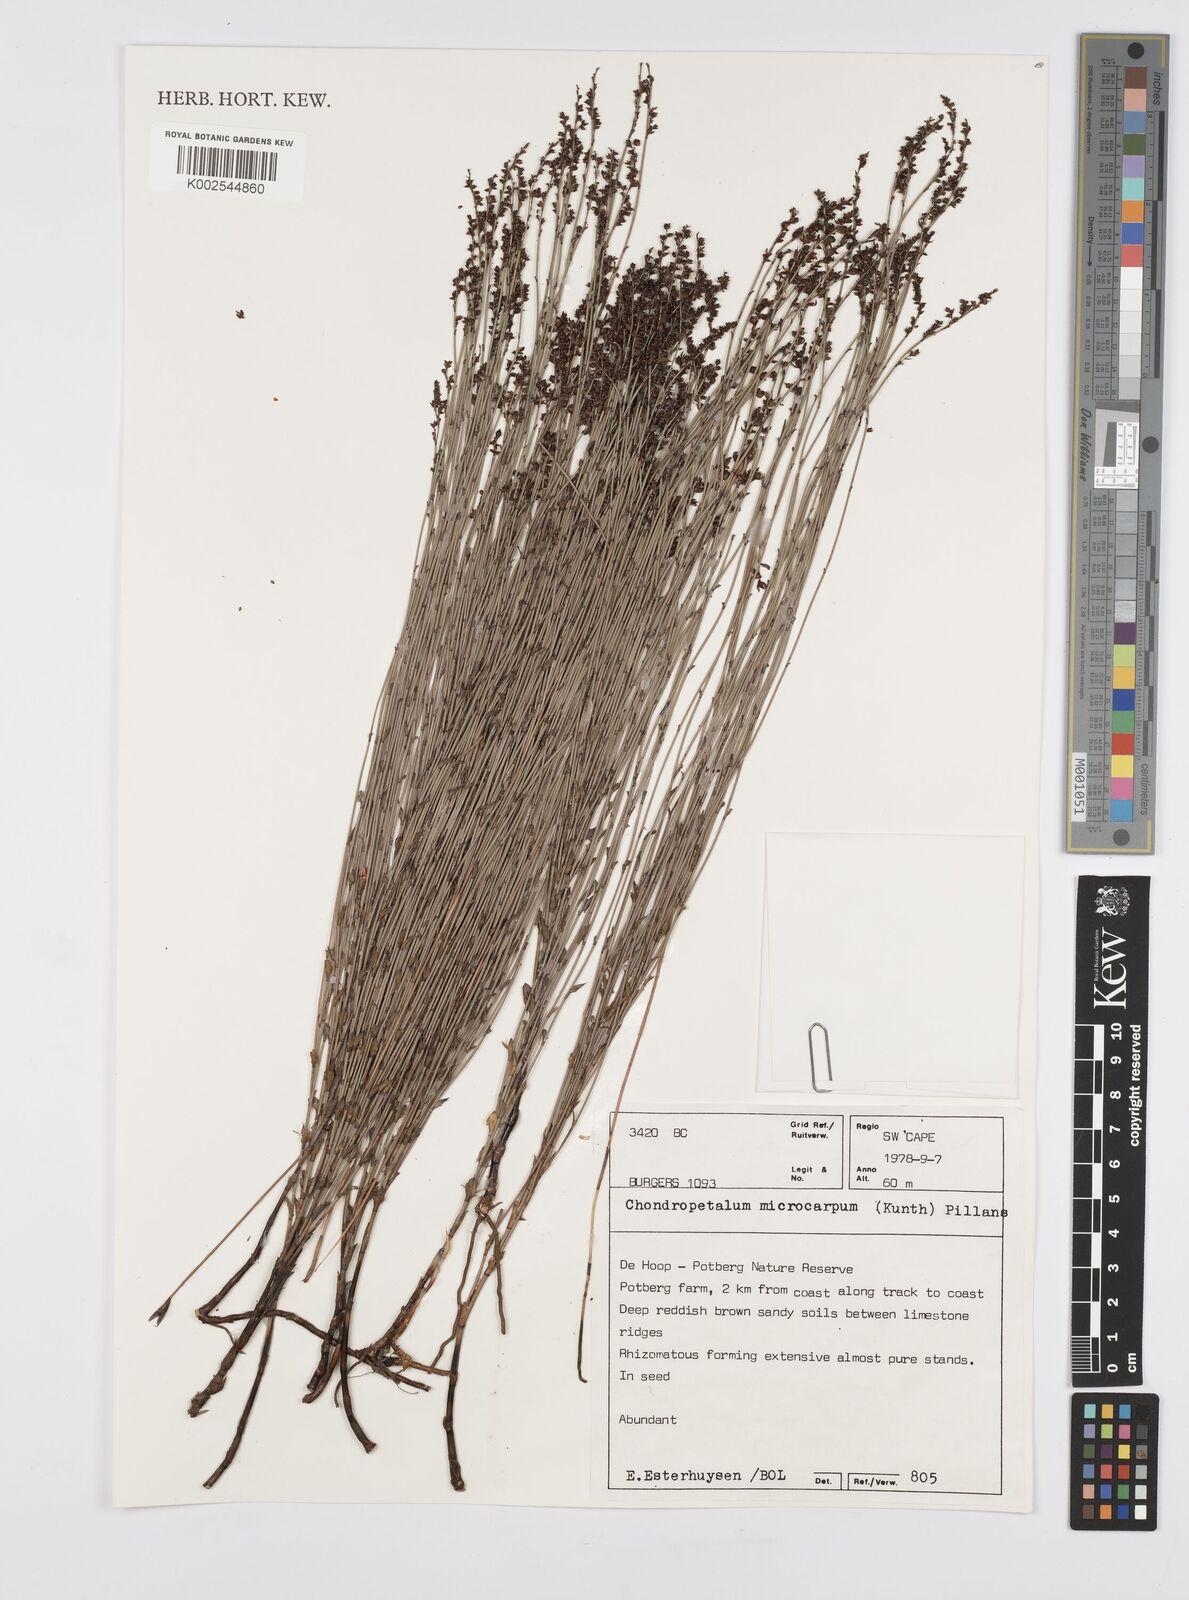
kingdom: Plantae
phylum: Tracheophyta
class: Liliopsida
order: Poales
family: Restionaceae
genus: Elegia
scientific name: Elegia microcarpa
